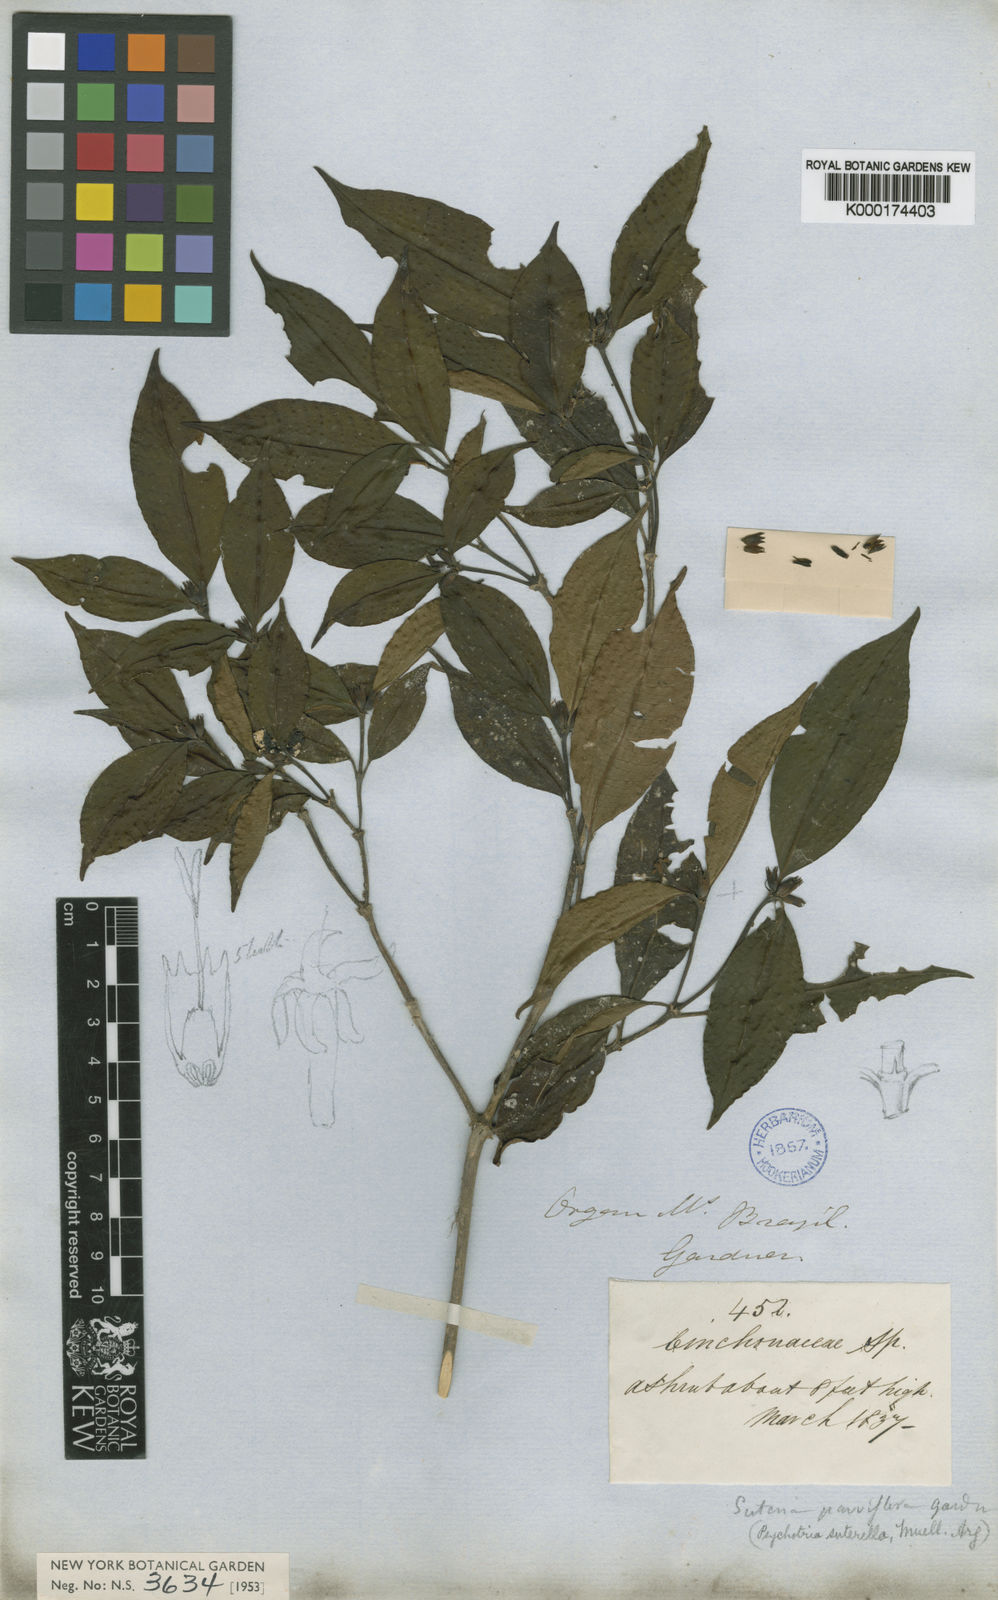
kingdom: Plantae
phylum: Tracheophyta
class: Magnoliopsida
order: Gentianales
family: Rubiaceae
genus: Psychotria
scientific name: Psychotria
